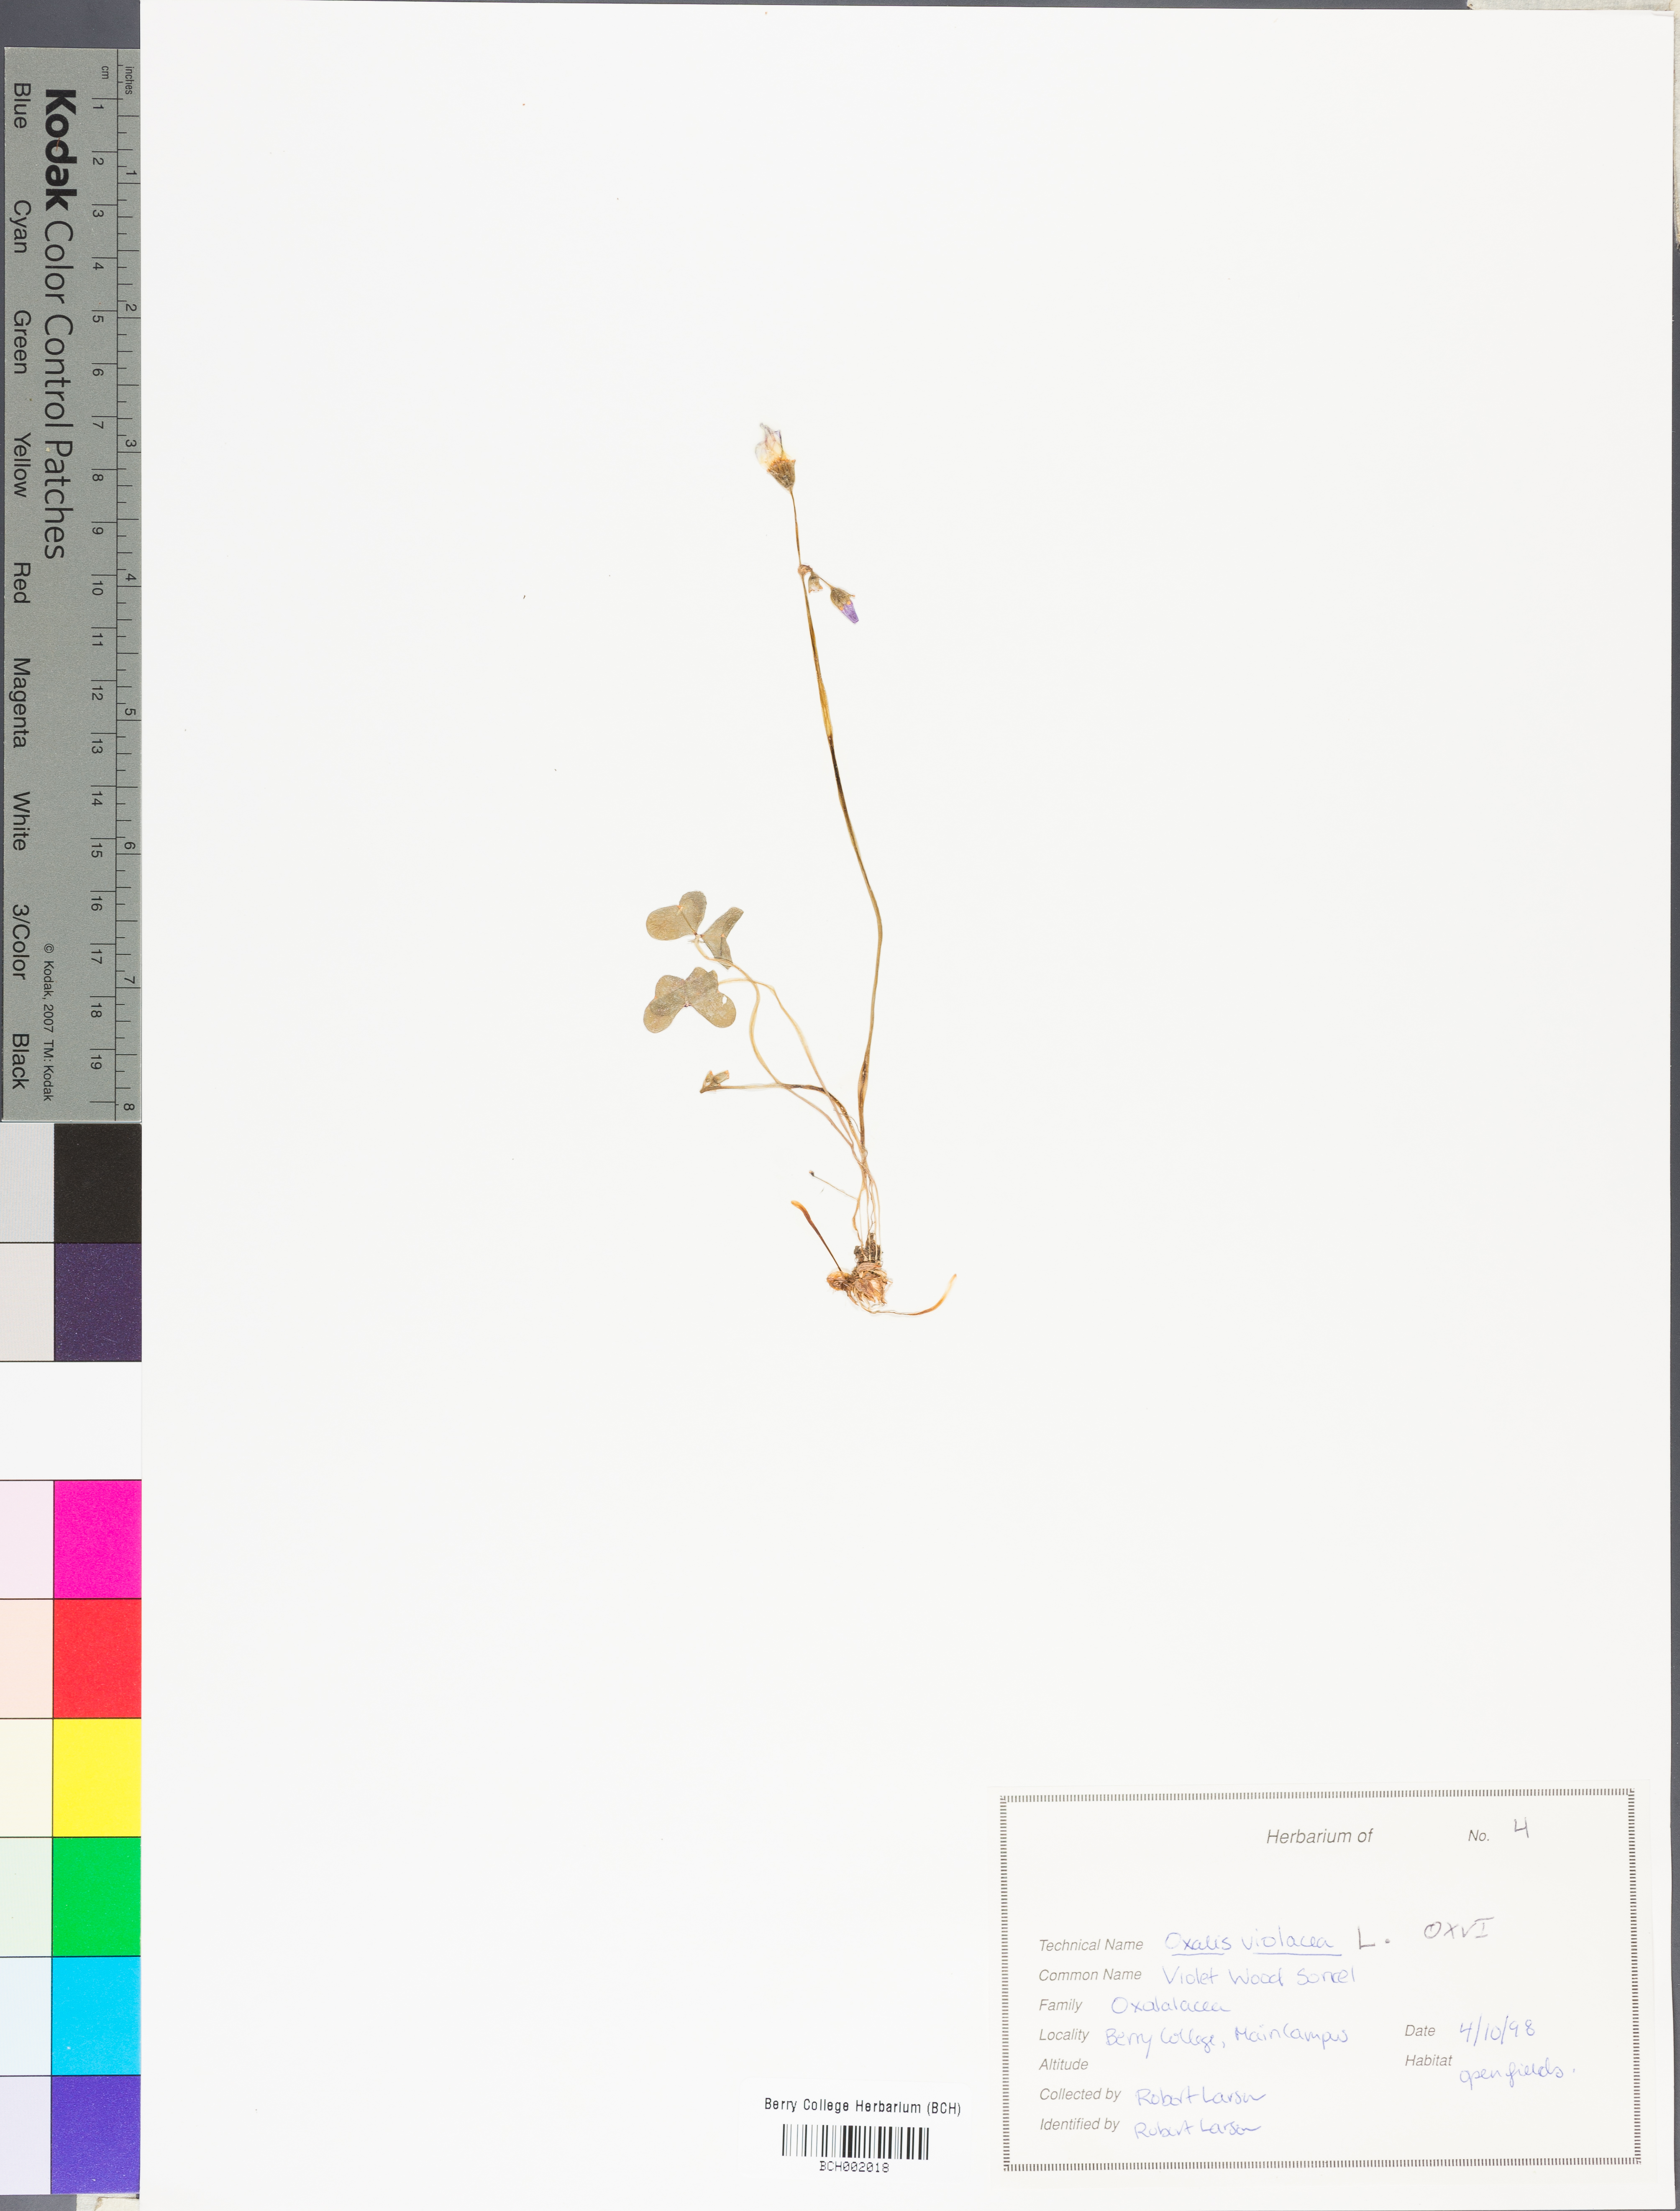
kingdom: Plantae
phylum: Tracheophyta
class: Magnoliopsida
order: Oxalidales
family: Oxalidaceae
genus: Oxalis
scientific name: Oxalis violacea
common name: Violet wood-sorrel
